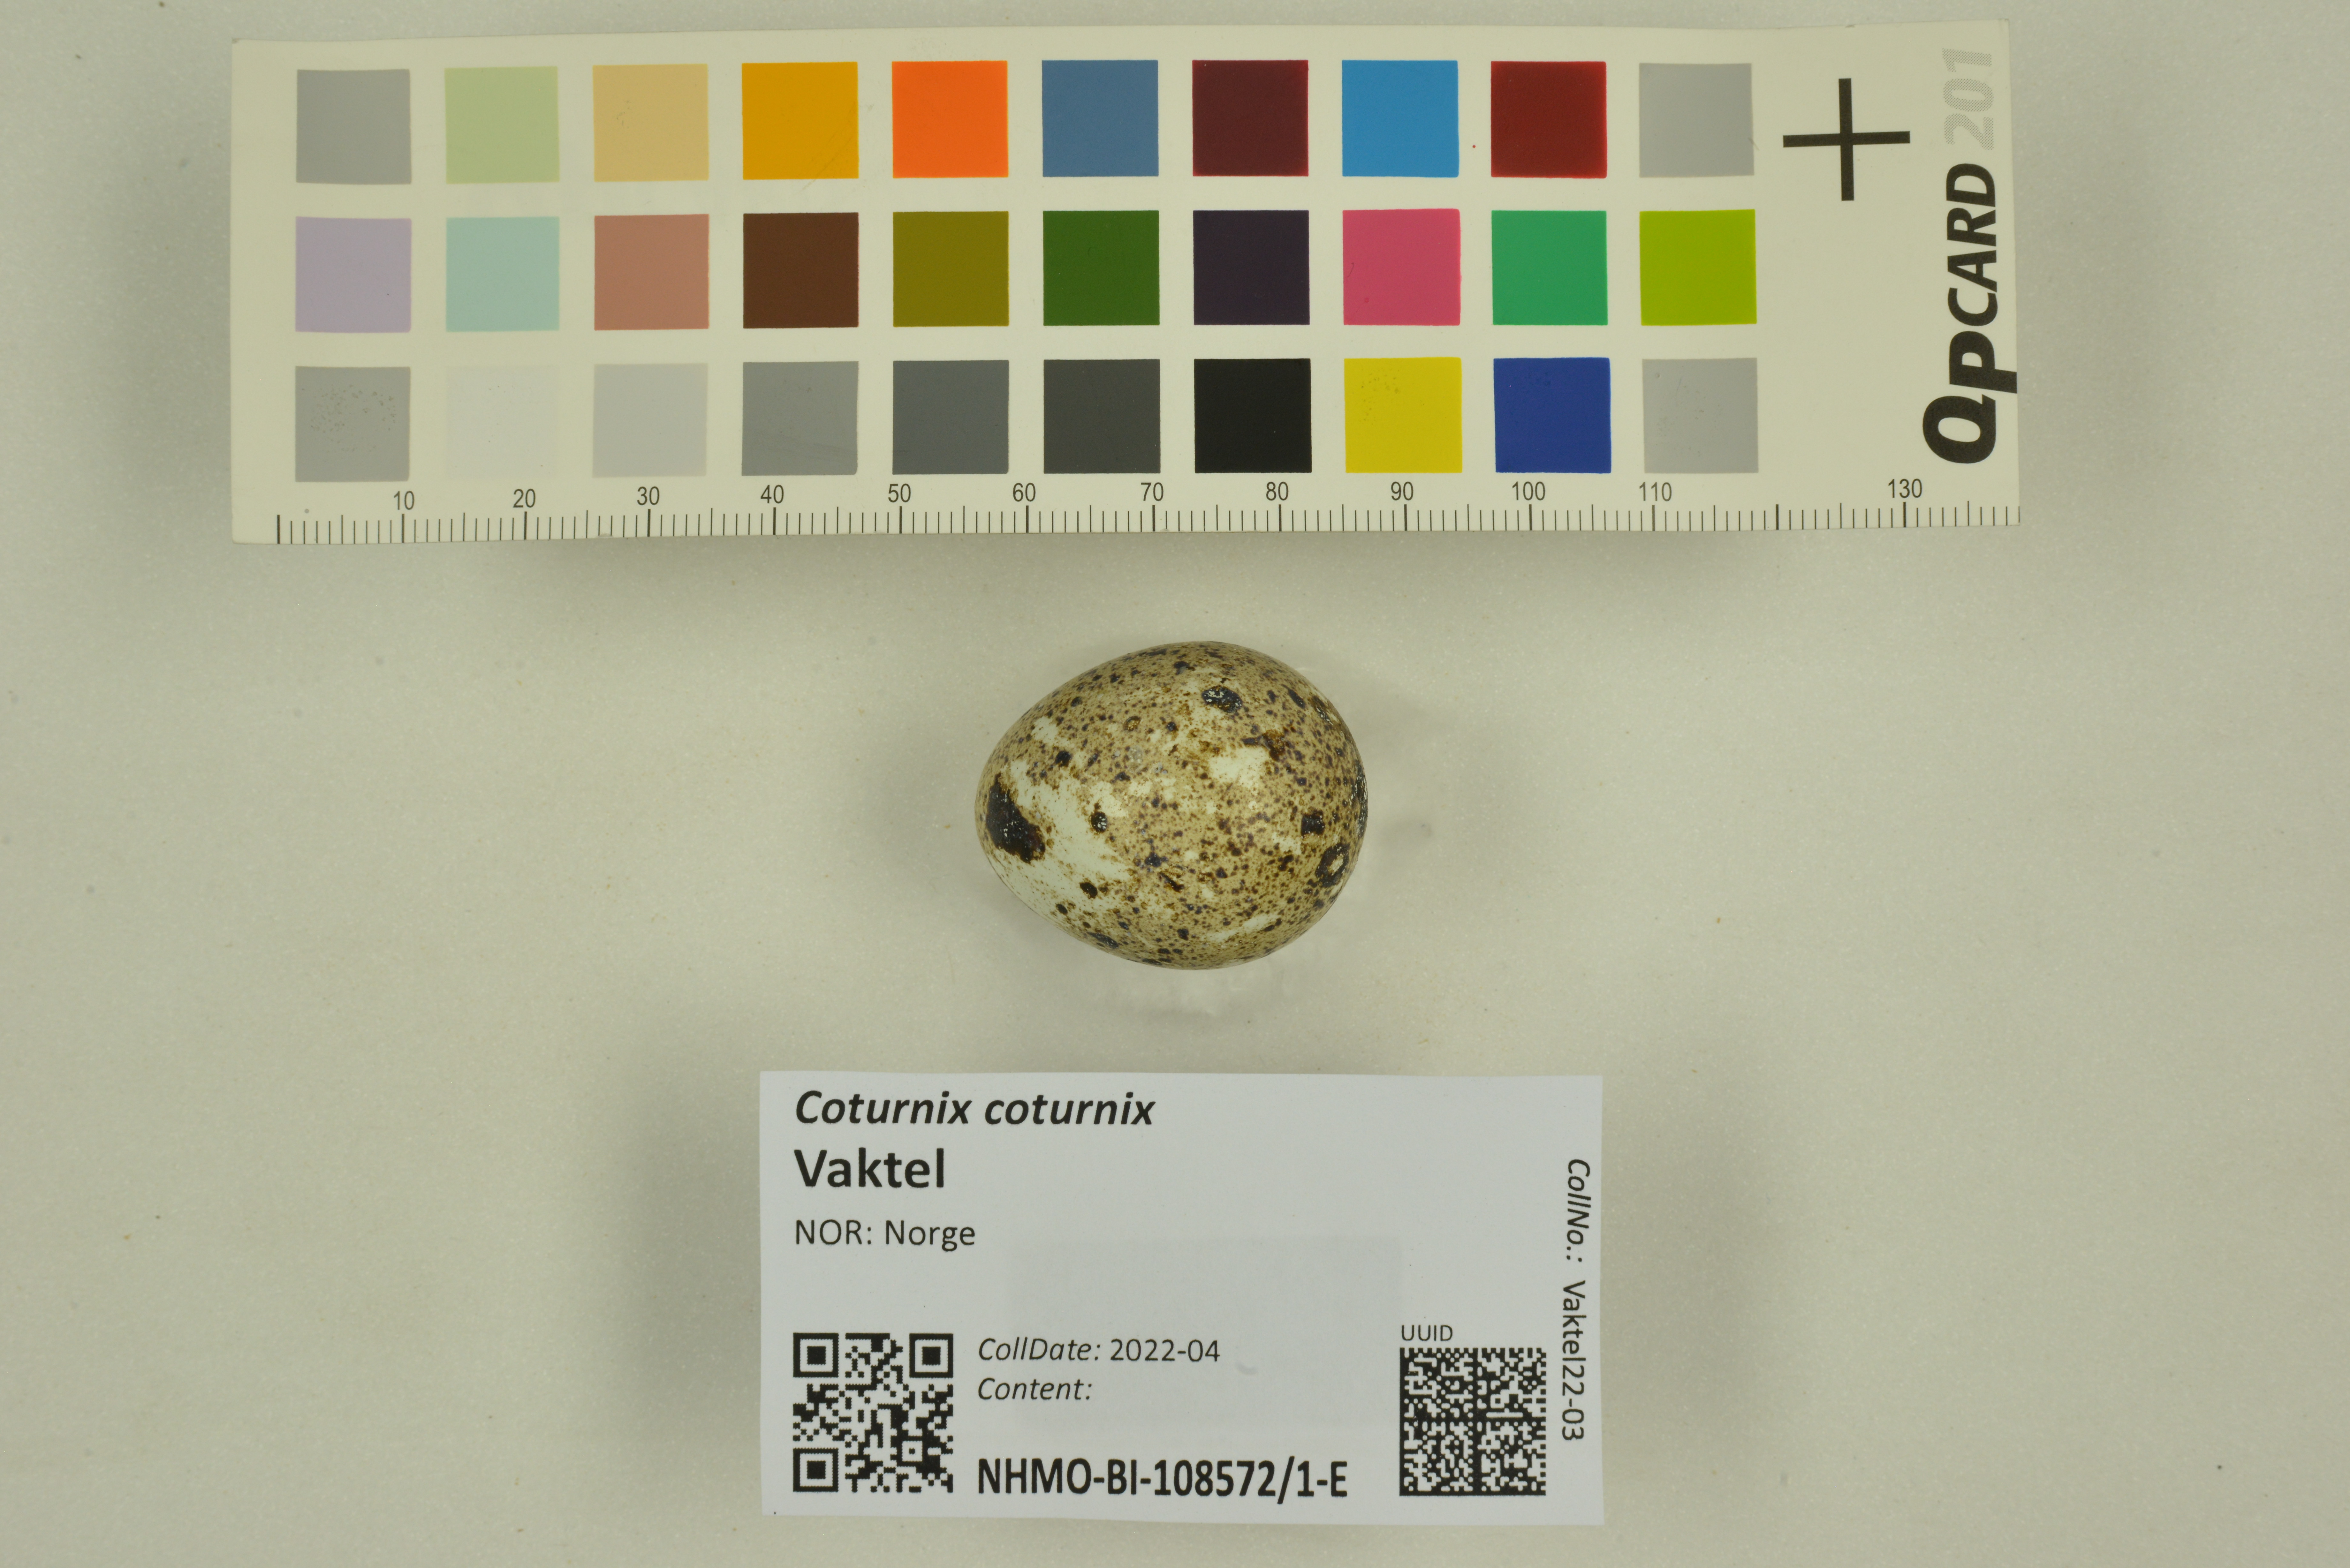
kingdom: Animalia
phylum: Chordata
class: Aves
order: Galliformes
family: Phasianidae
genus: Coturnix
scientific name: Coturnix coturnix
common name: Common quail
